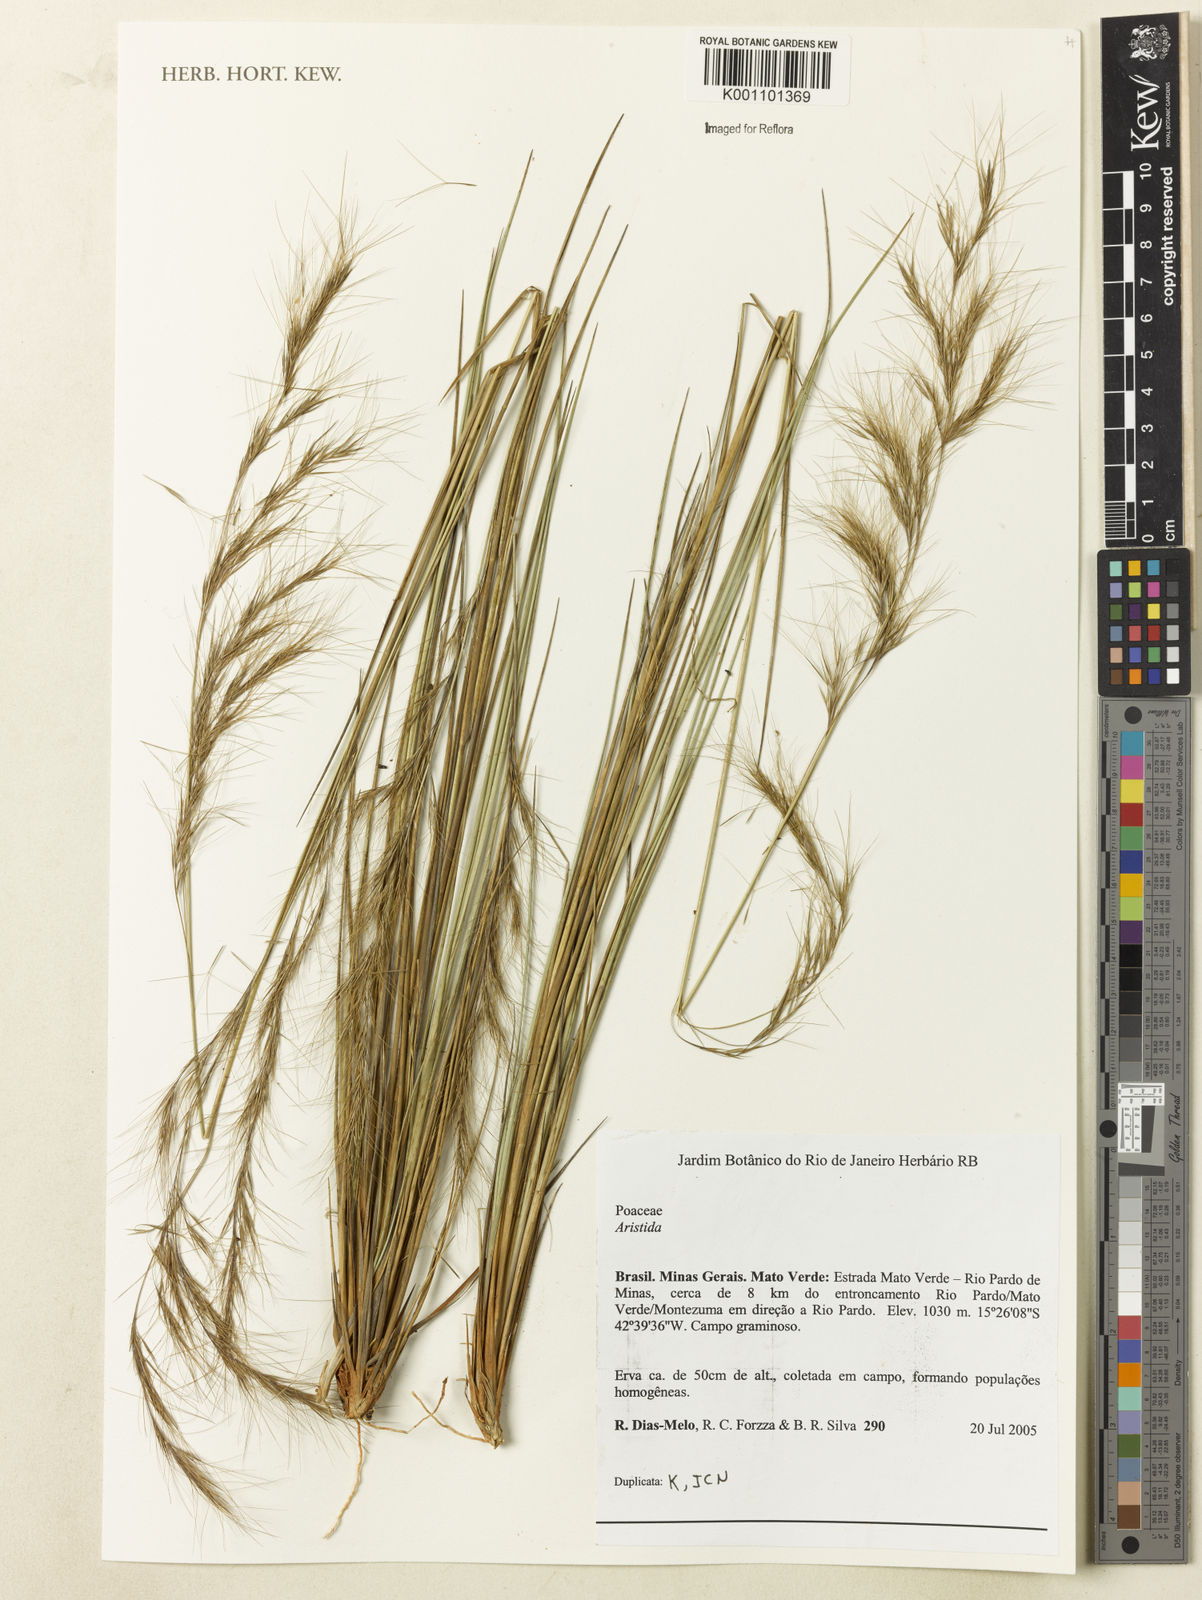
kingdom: Plantae
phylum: Tracheophyta
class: Liliopsida
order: Poales
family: Poaceae
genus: Aristida
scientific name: Aristida
